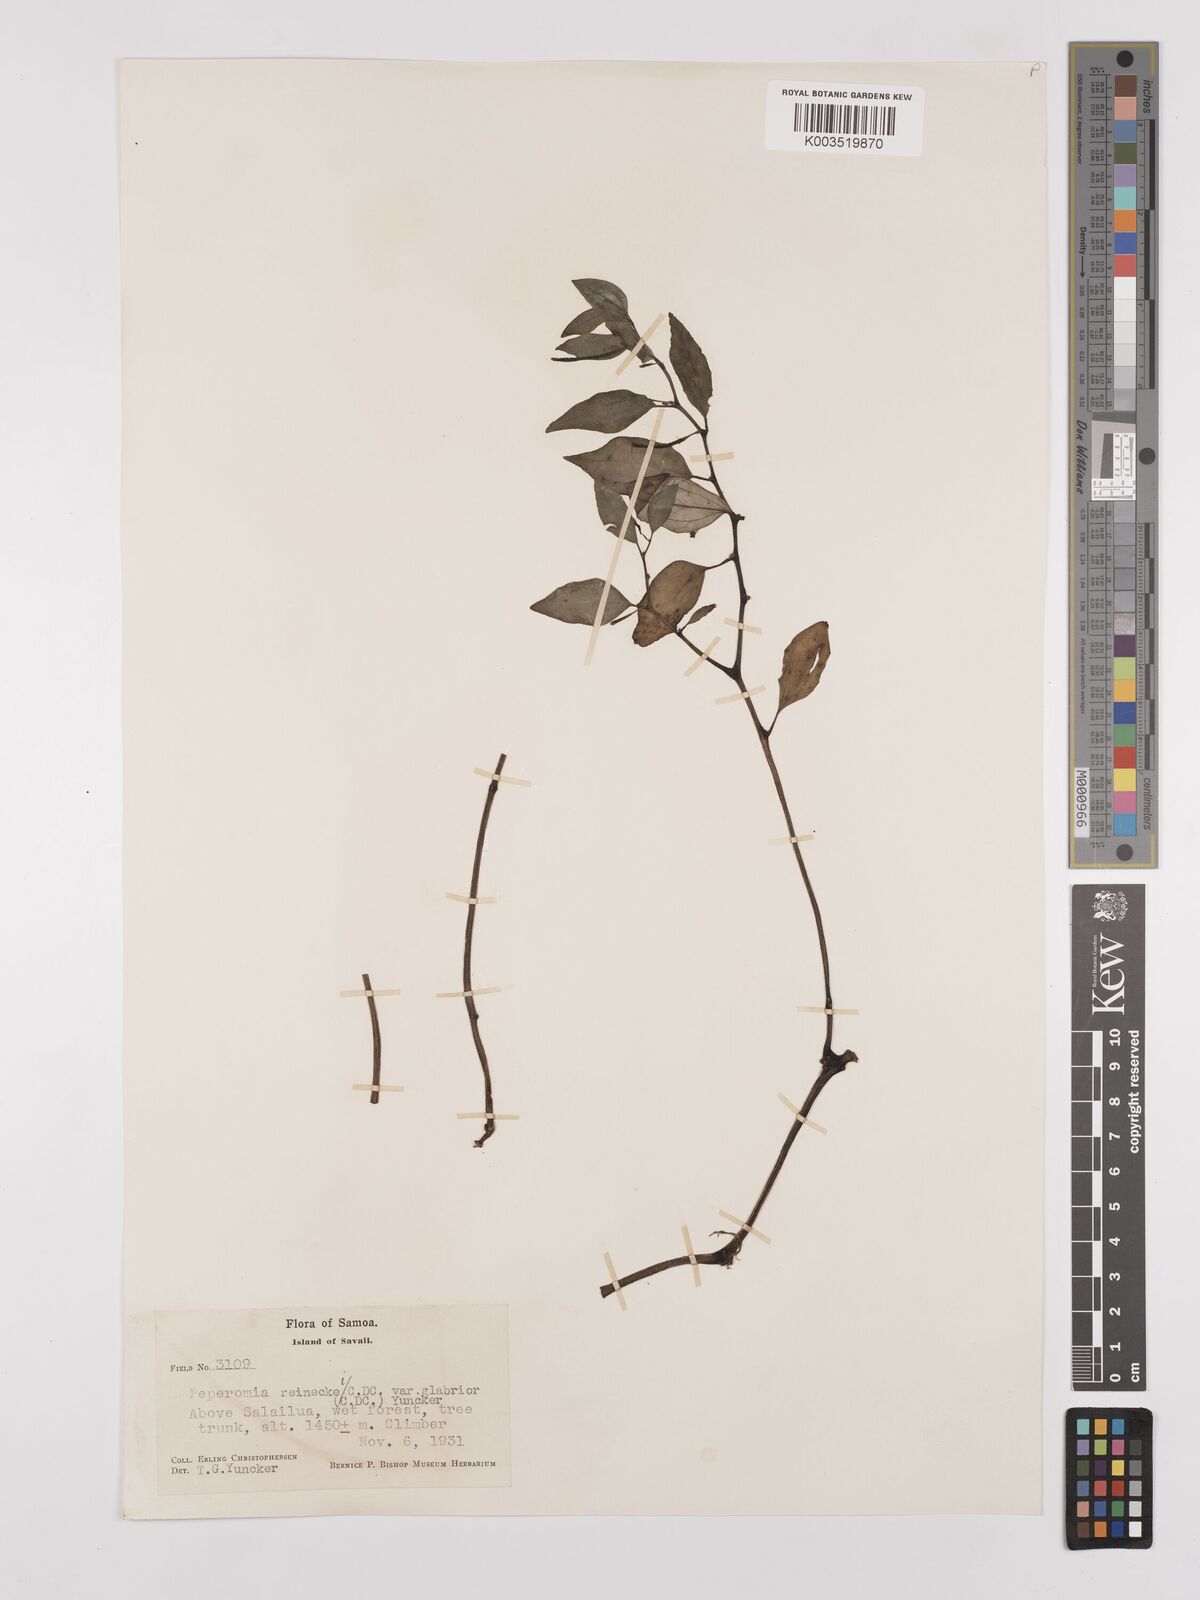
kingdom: Plantae
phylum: Tracheophyta
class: Magnoliopsida
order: Piperales
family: Piperaceae
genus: Peperomia
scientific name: Peperomia reineckei
